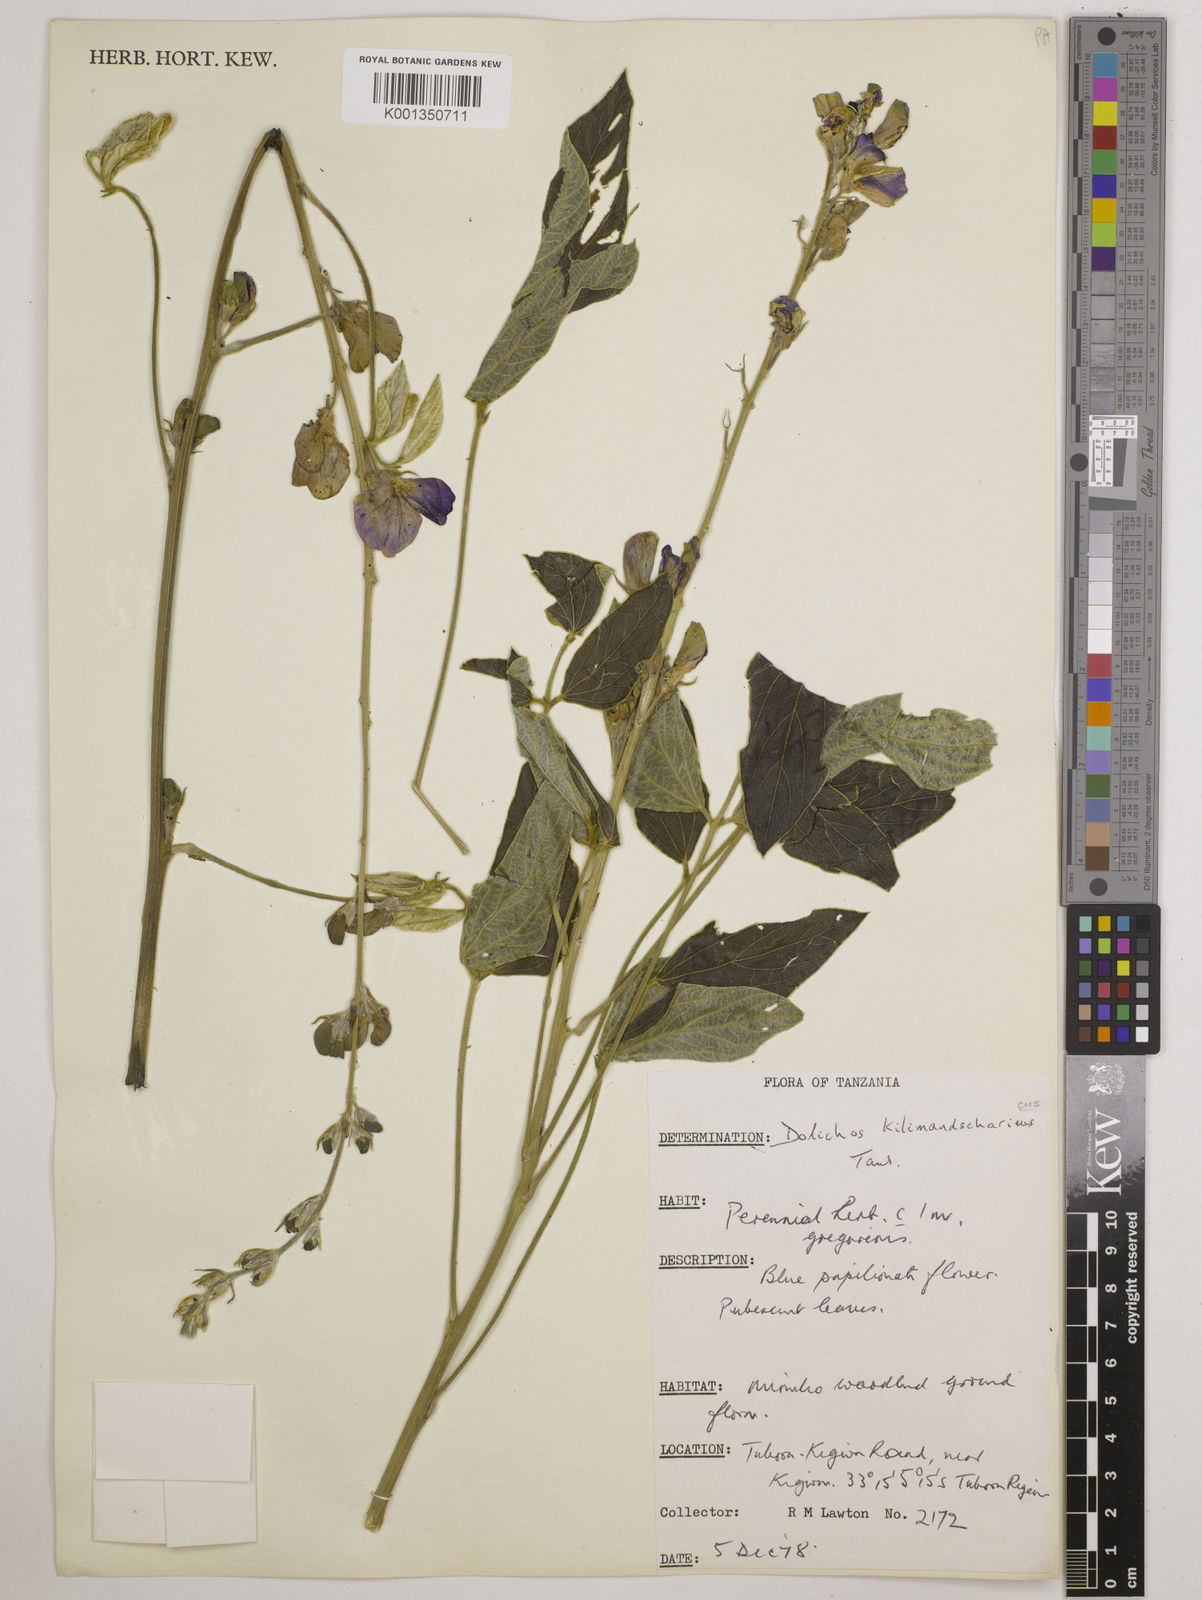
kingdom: Plantae
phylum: Tracheophyta
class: Magnoliopsida
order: Fabales
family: Fabaceae
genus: Dolichos
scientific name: Dolichos kilimandscharicus
